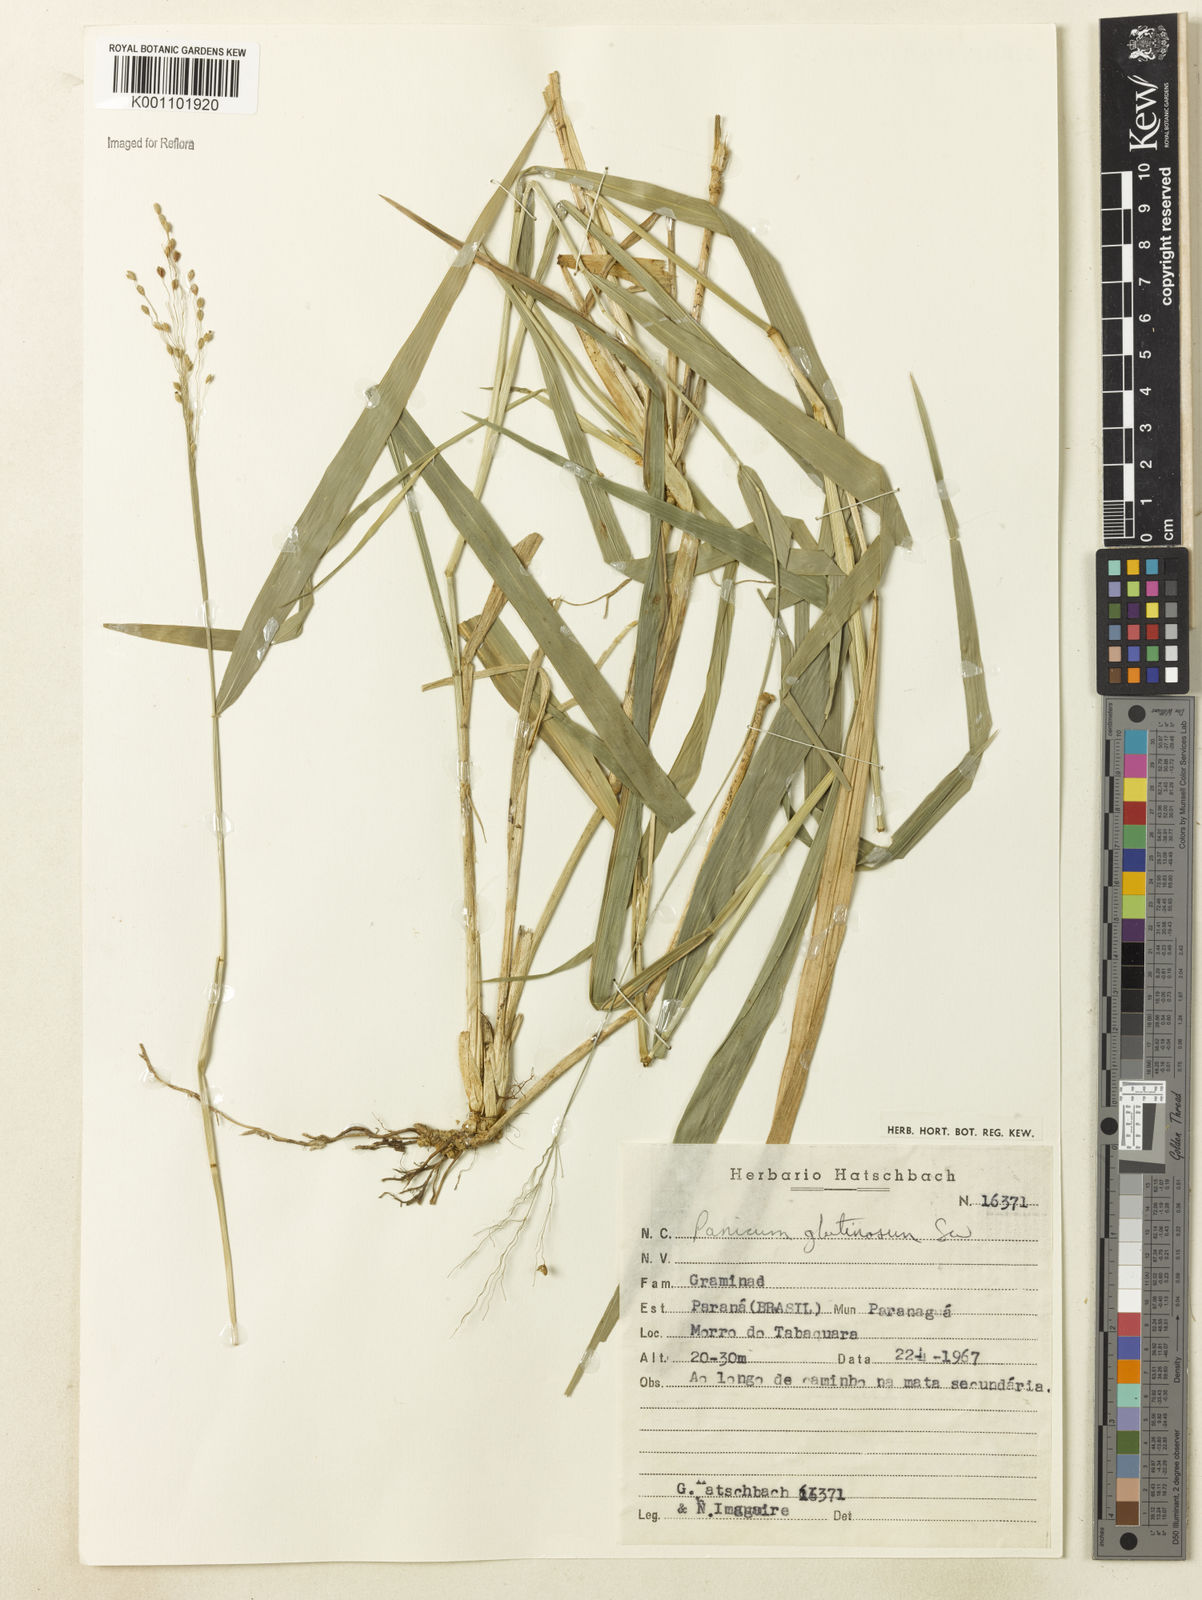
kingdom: Plantae
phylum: Tracheophyta
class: Liliopsida
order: Poales
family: Poaceae
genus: Homolepis
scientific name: Homolepis glutinosa
